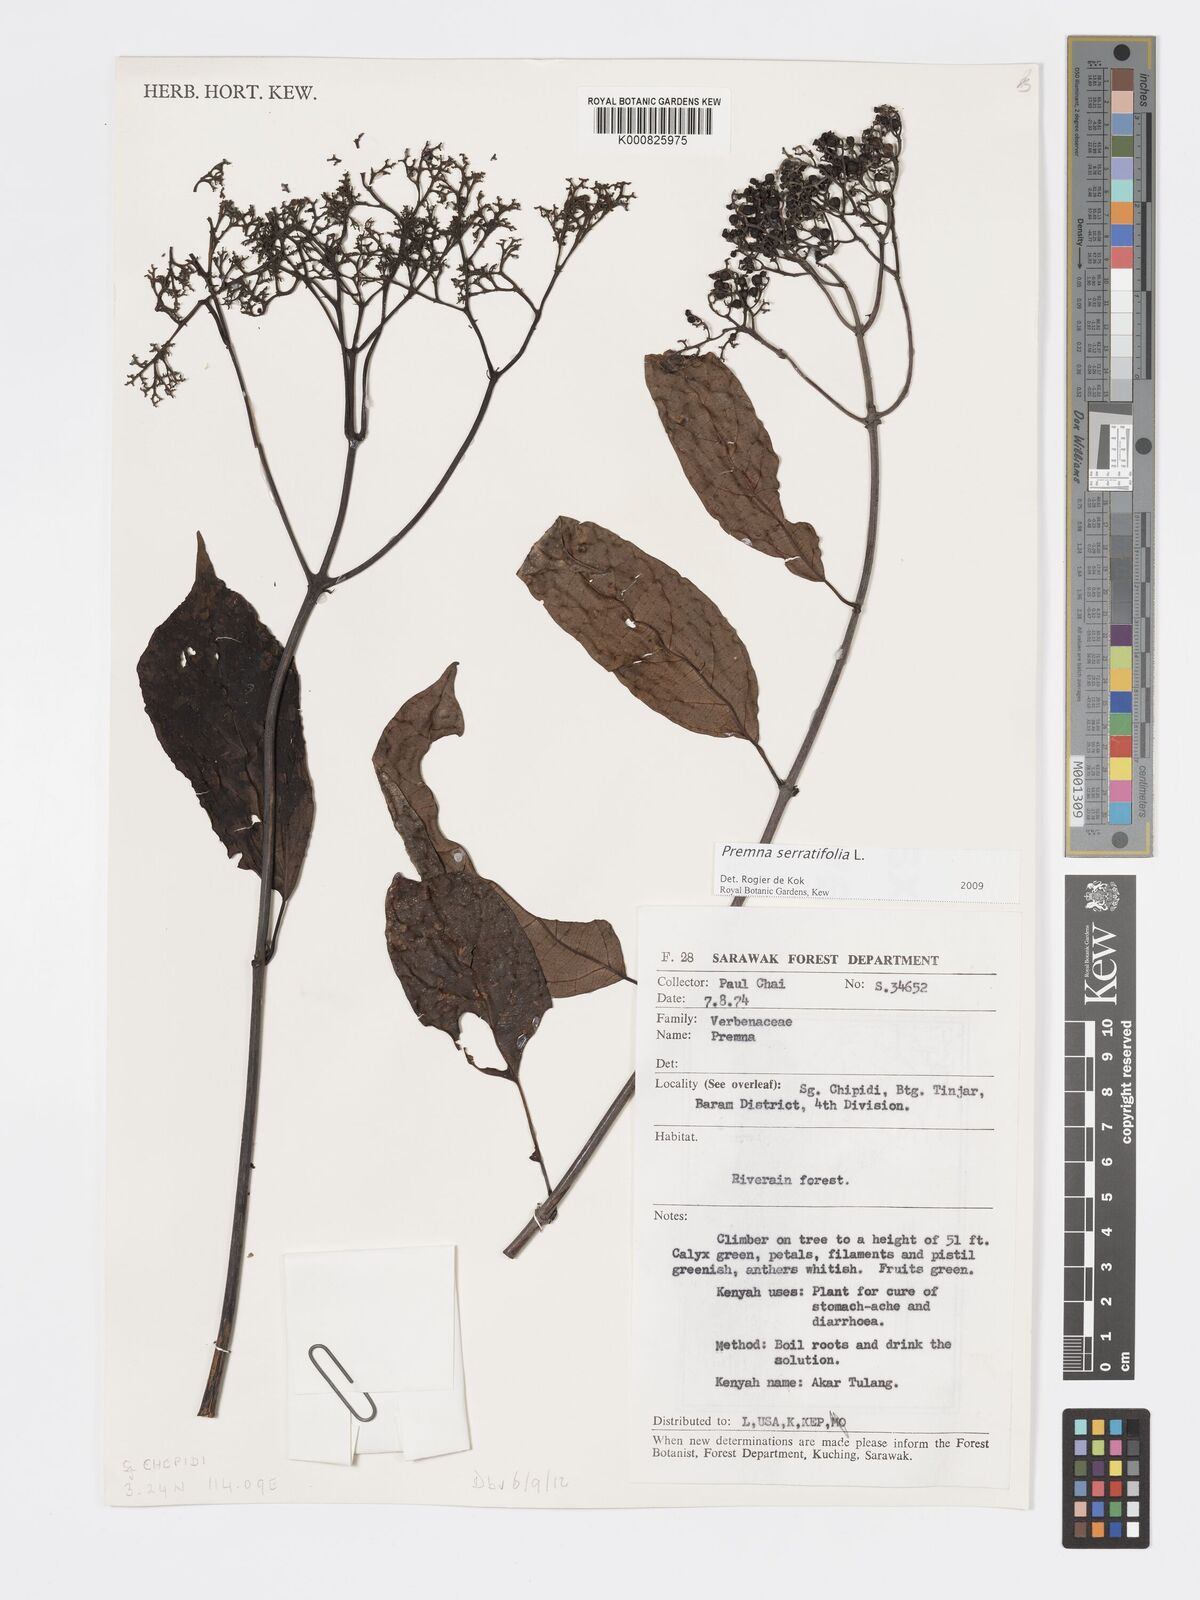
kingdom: Plantae
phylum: Tracheophyta
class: Magnoliopsida
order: Lamiales
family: Lamiaceae
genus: Premna
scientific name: Premna serratifolia
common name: Bastard guelder
